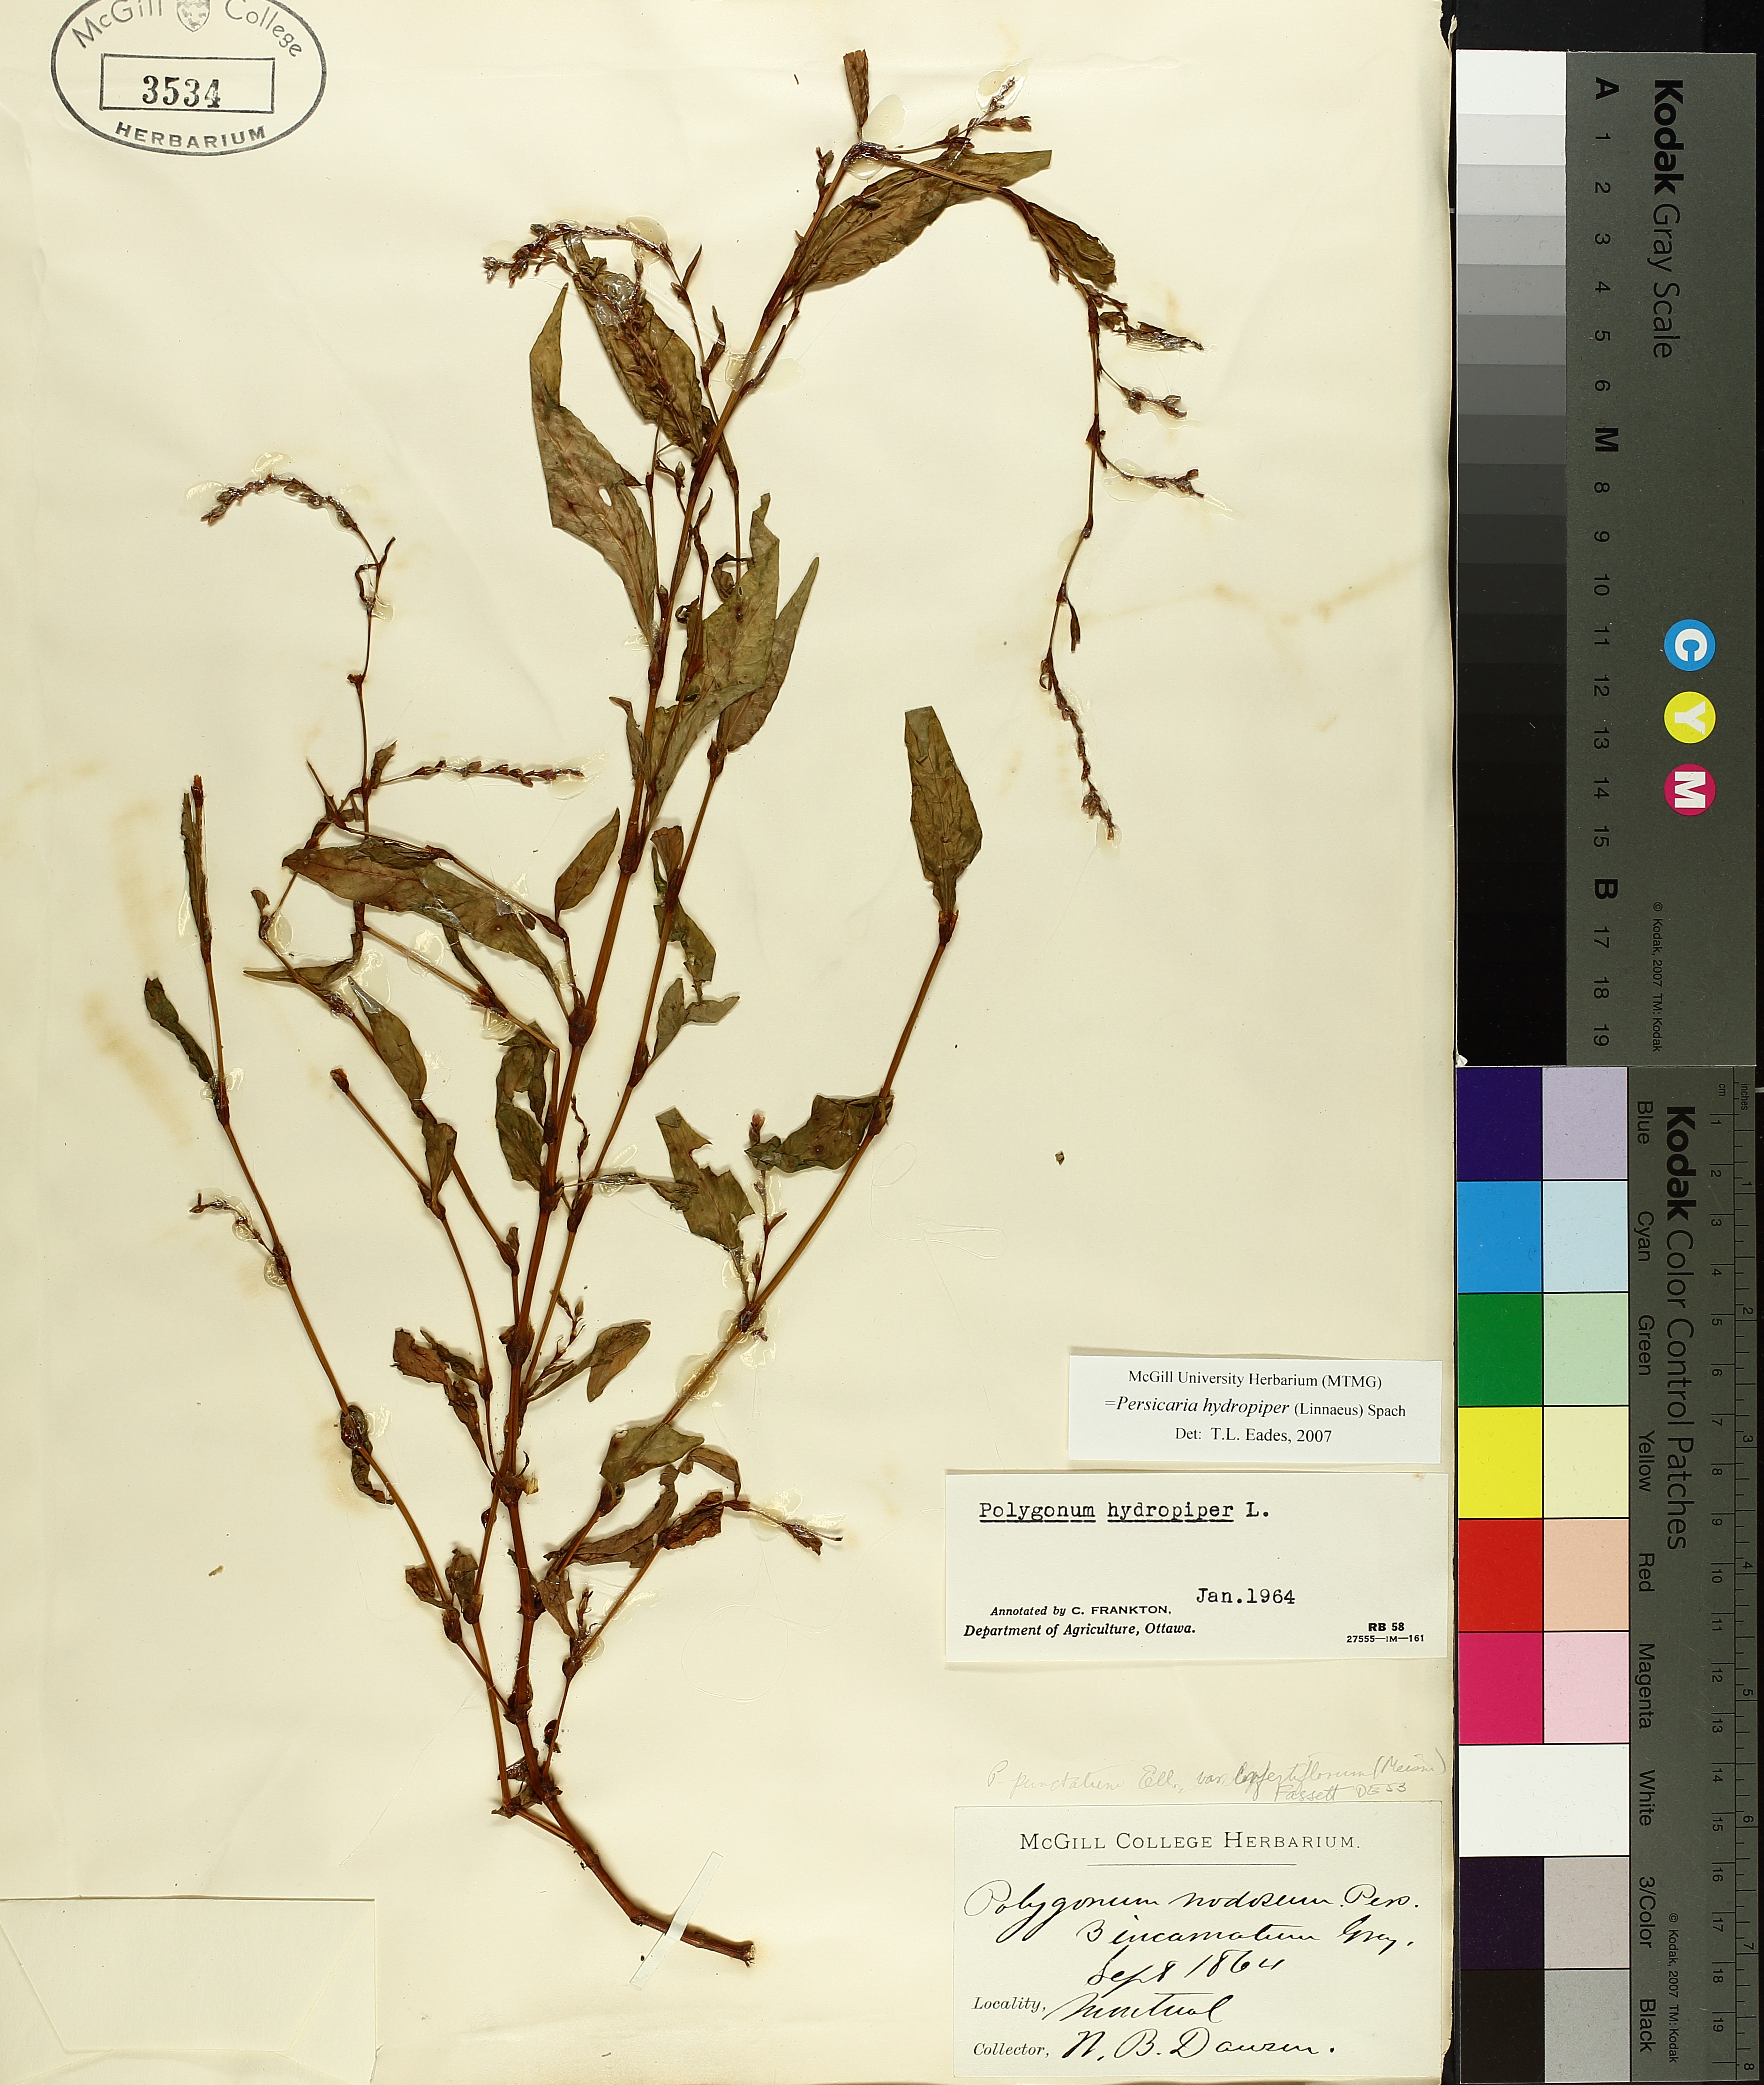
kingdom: Plantae
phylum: Tracheophyta
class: Magnoliopsida
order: Caryophyllales
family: Polygonaceae
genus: Persicaria
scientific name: Persicaria hydropiper
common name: Water-pepper
